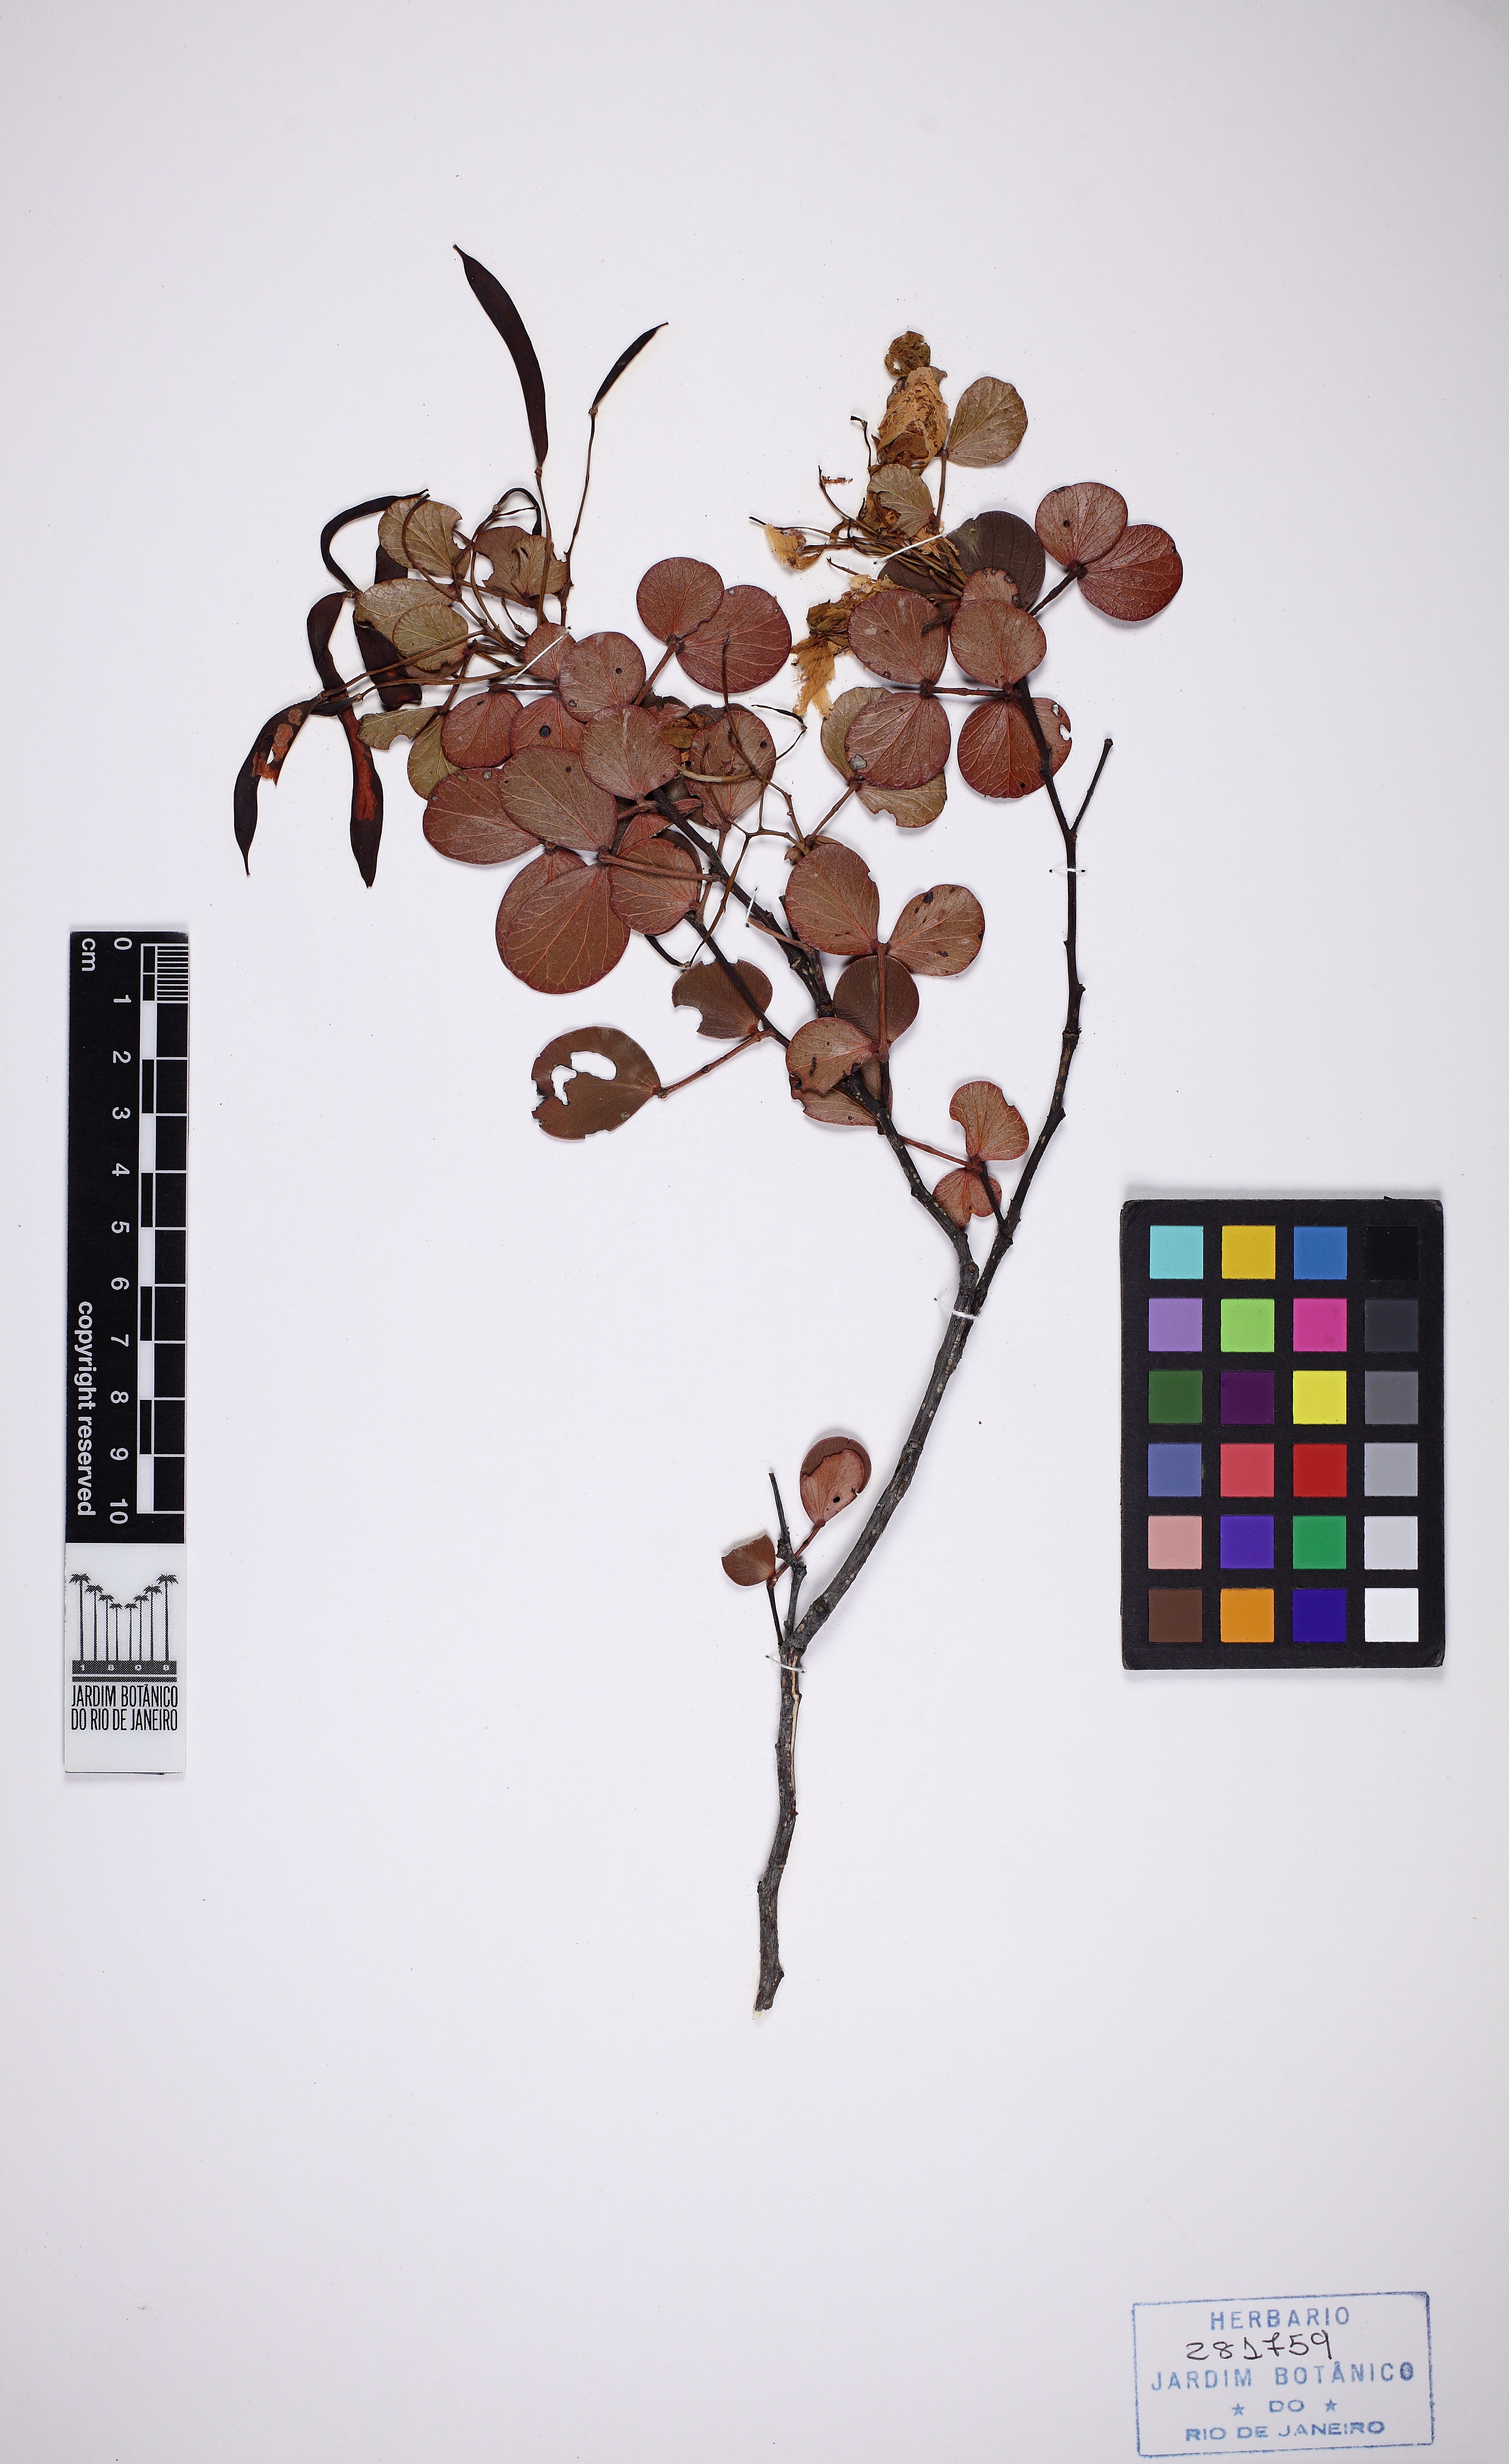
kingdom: Plantae
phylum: Tracheophyta
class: Magnoliopsida
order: Fabales
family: Fabaceae
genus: Chamaecrista
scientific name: Chamaecrista brachystachya
